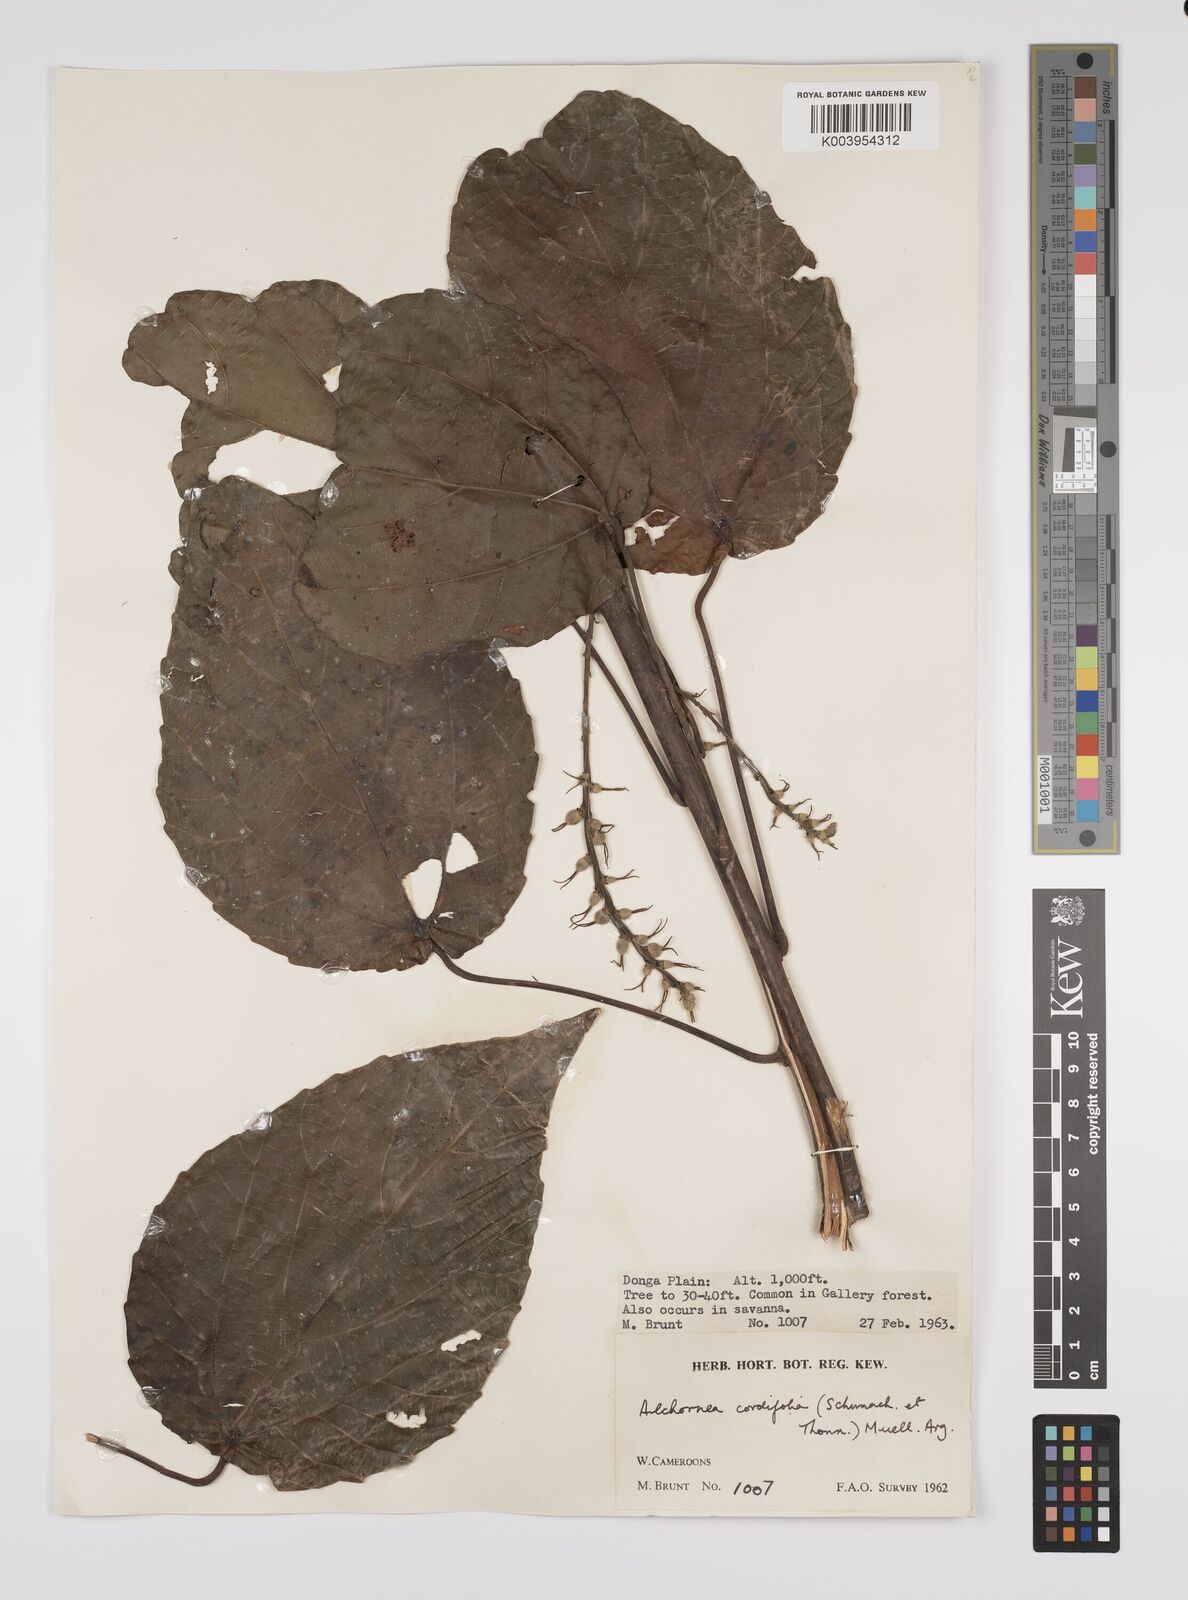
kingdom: Plantae
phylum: Tracheophyta
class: Magnoliopsida
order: Malpighiales
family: Euphorbiaceae
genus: Alchornea
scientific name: Alchornea cordifolia
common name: Christmasbush
